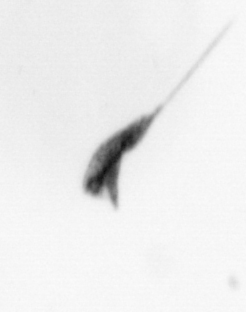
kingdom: Animalia
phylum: Arthropoda
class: Copepoda
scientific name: Copepoda
